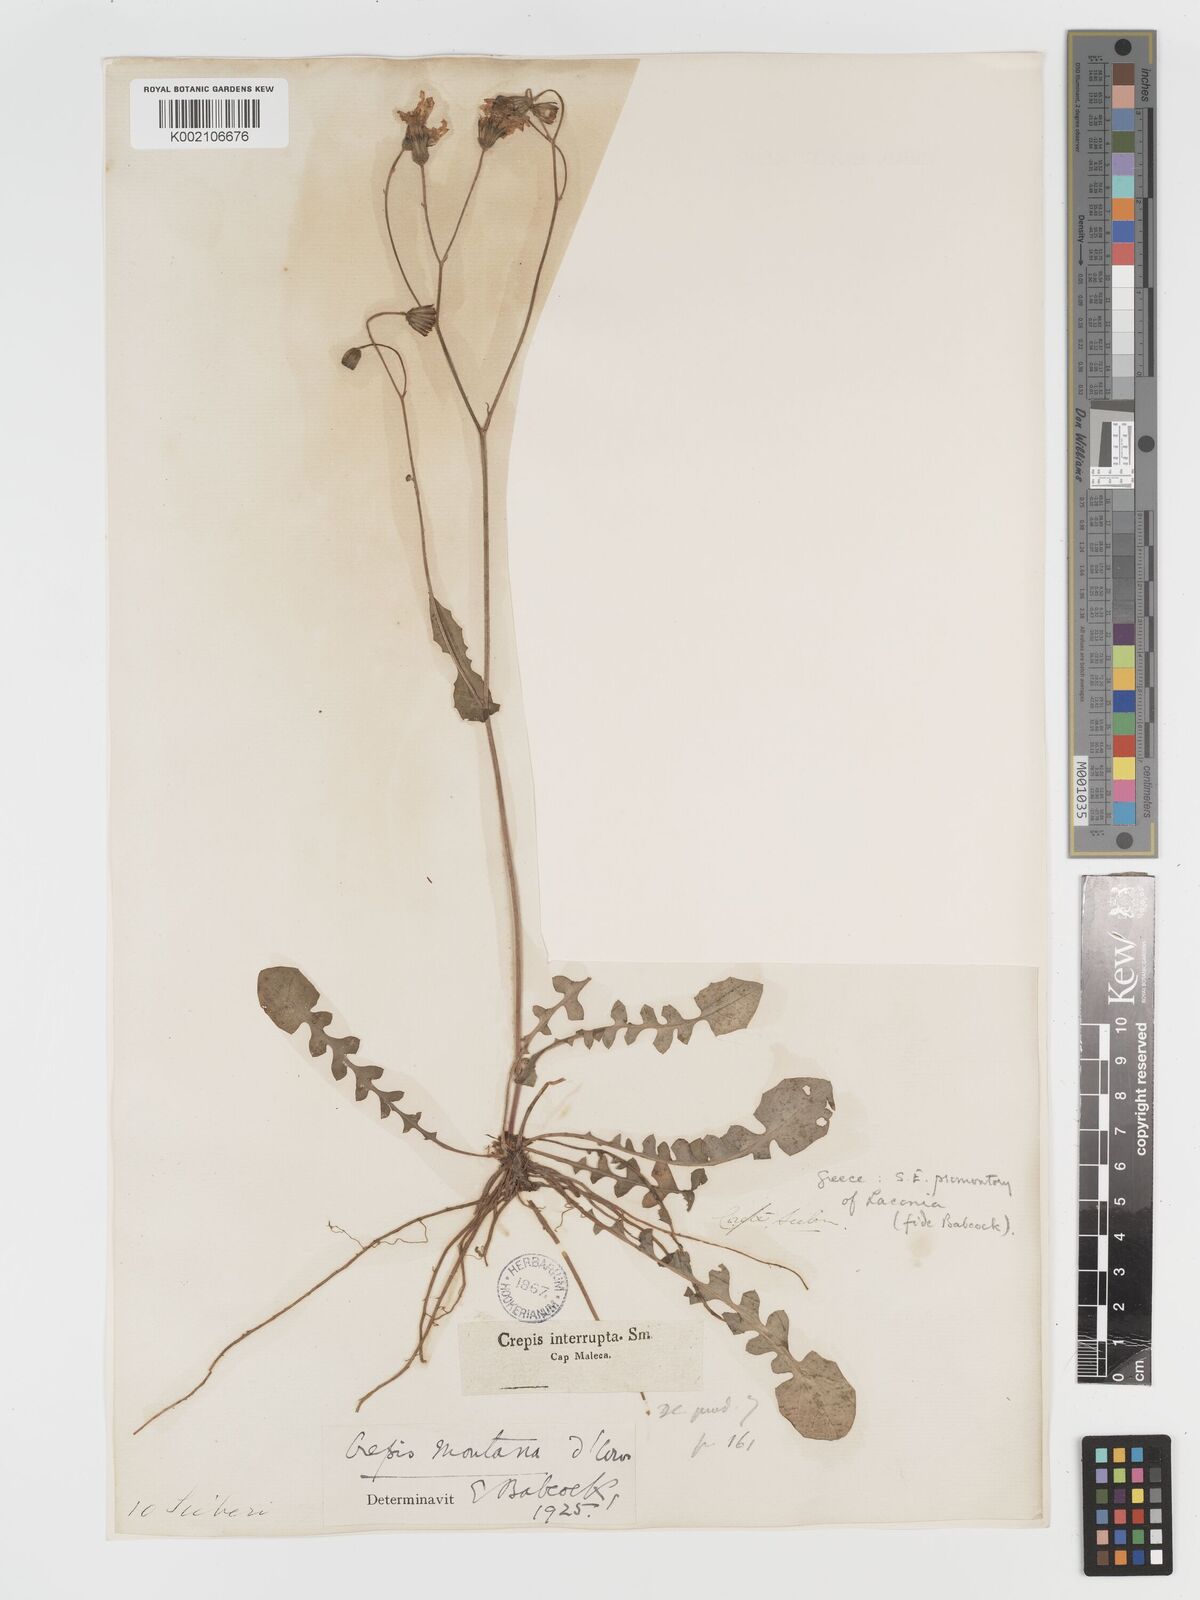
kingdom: Plantae
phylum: Tracheophyta
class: Magnoliopsida
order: Asterales
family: Asteraceae
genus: Crepis
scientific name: Crepis
